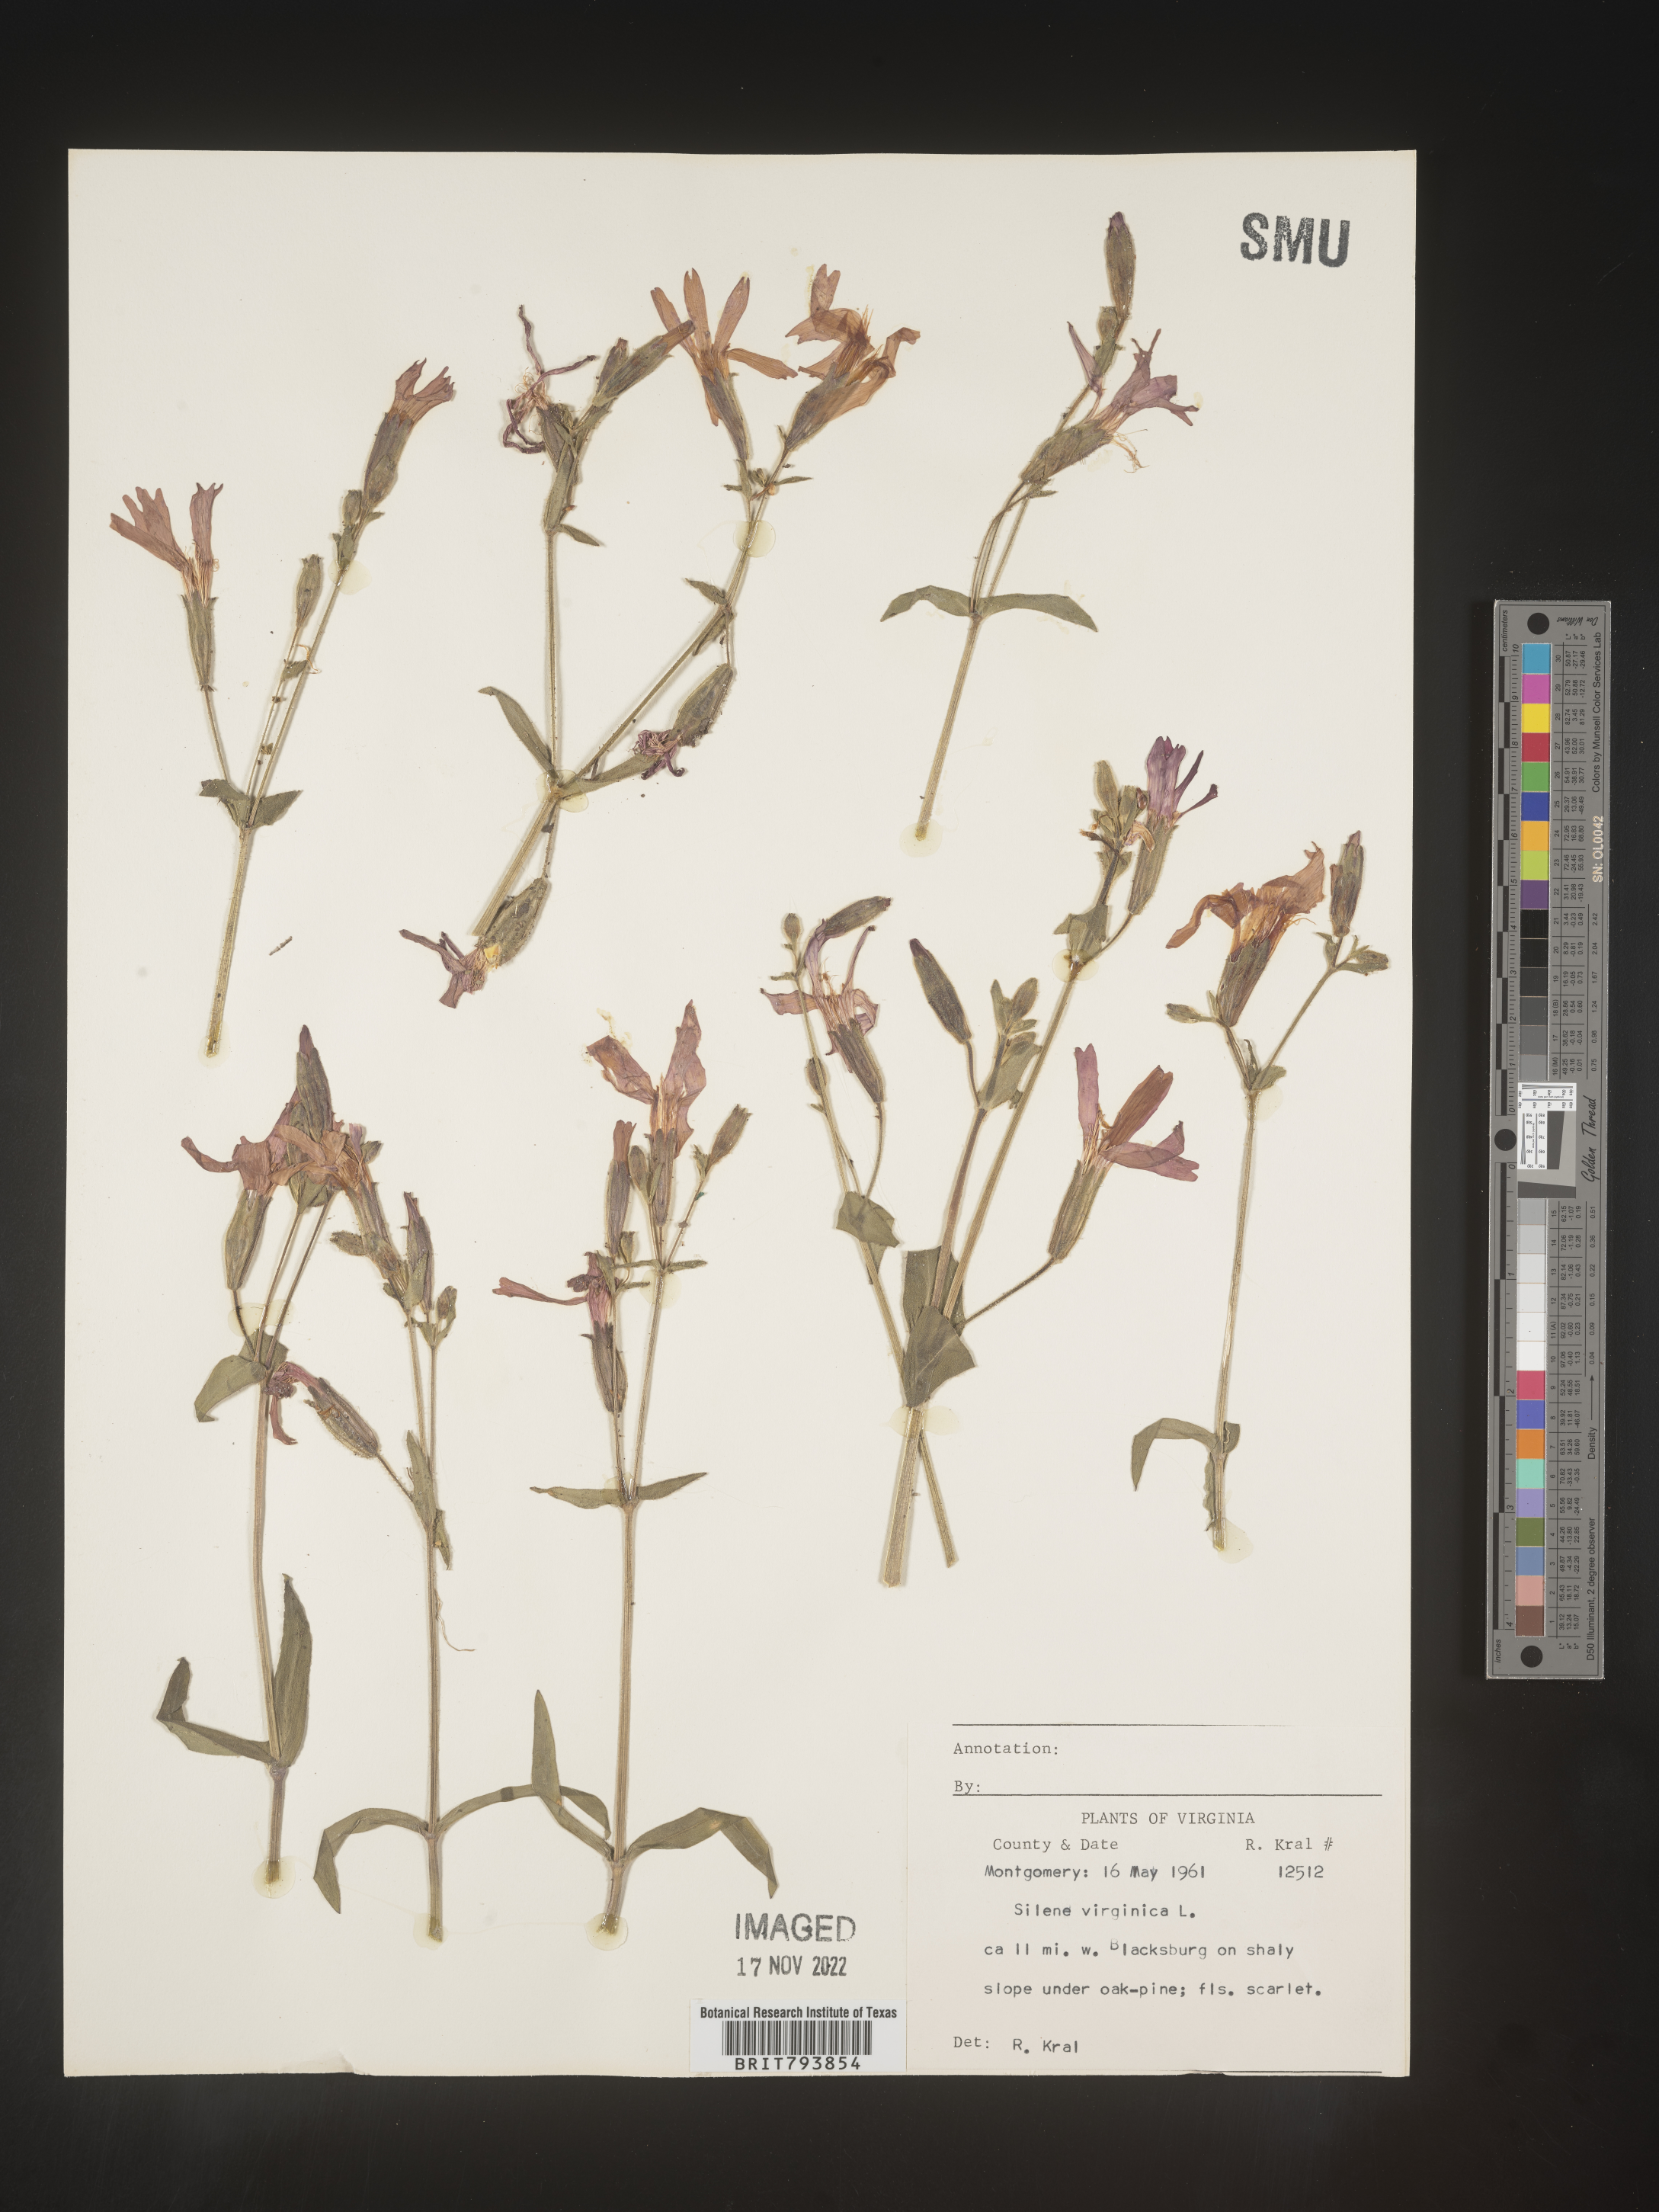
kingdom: Plantae
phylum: Tracheophyta
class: Magnoliopsida
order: Caryophyllales
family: Caryophyllaceae
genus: Silene
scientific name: Silene virginica
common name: Fire-pink
